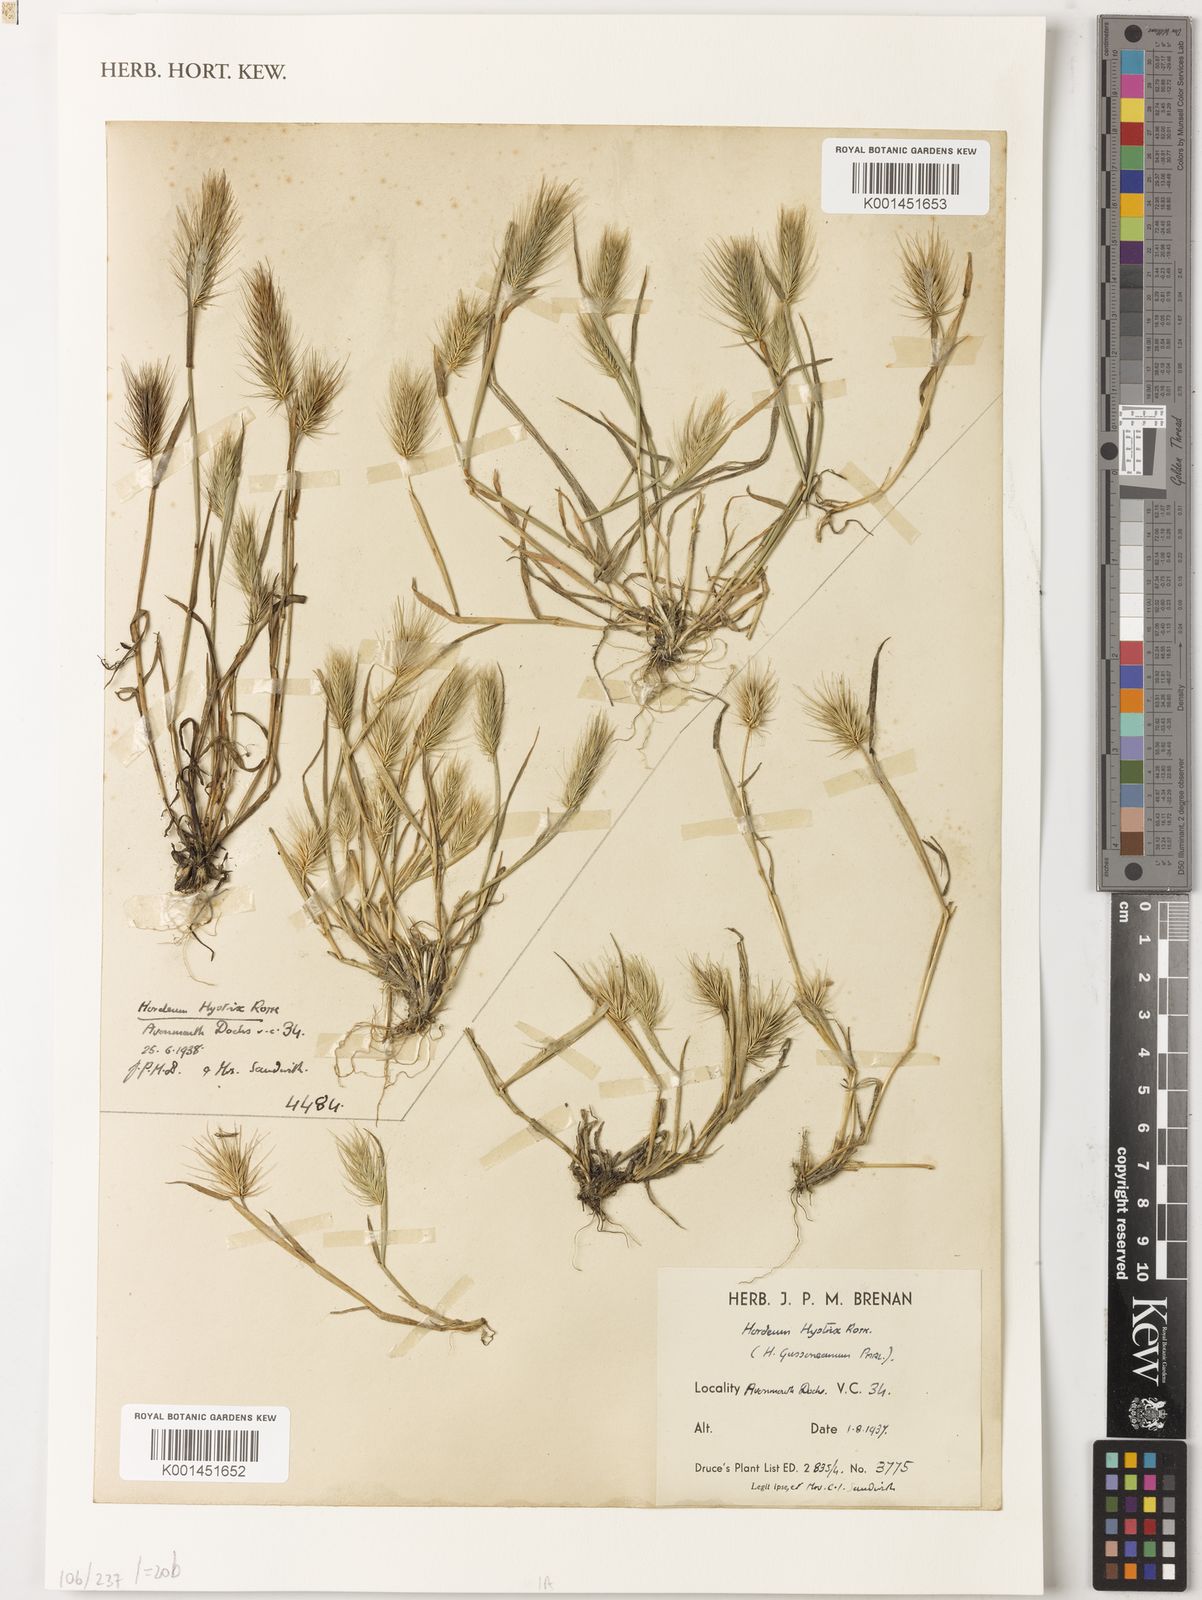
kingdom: Plantae
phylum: Tracheophyta
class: Liliopsida
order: Poales
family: Poaceae
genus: Hordeum
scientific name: Hordeum marinum
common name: Sea barley
